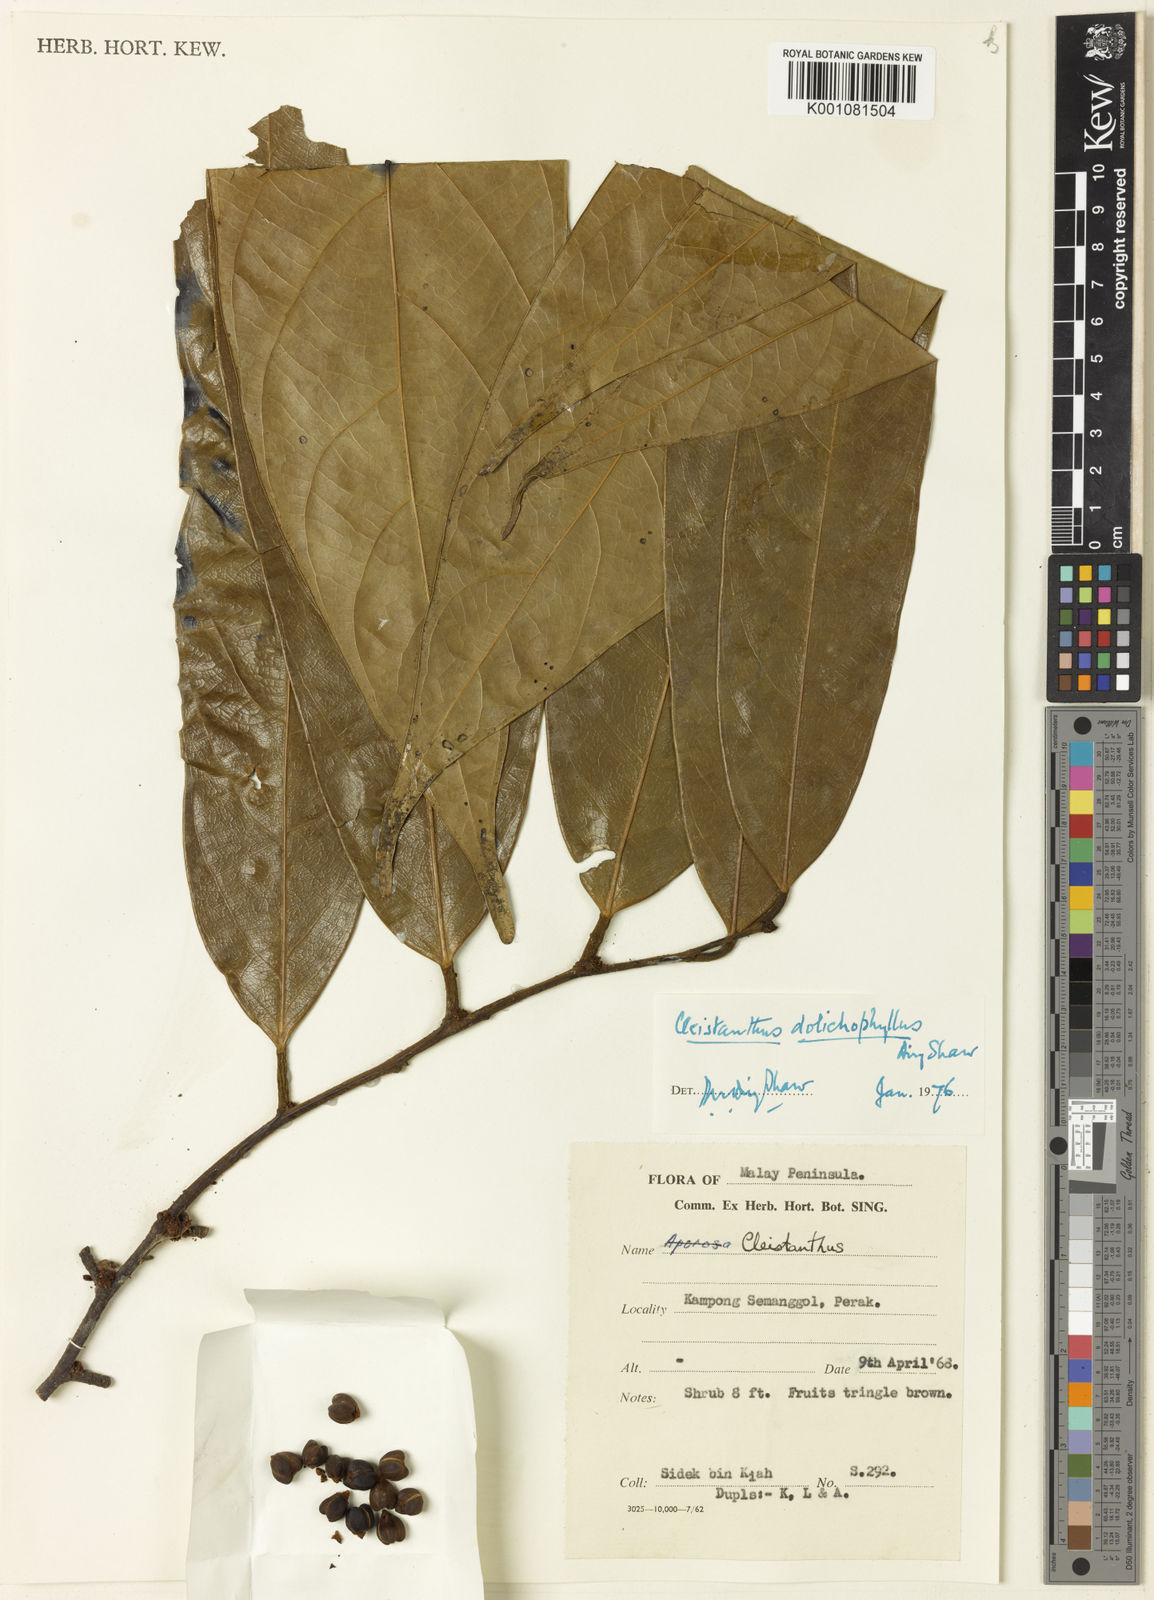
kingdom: Plantae
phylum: Tracheophyta
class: Magnoliopsida
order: Malpighiales
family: Phyllanthaceae
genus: Cleistanthus
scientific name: Cleistanthus dolichophyllus
